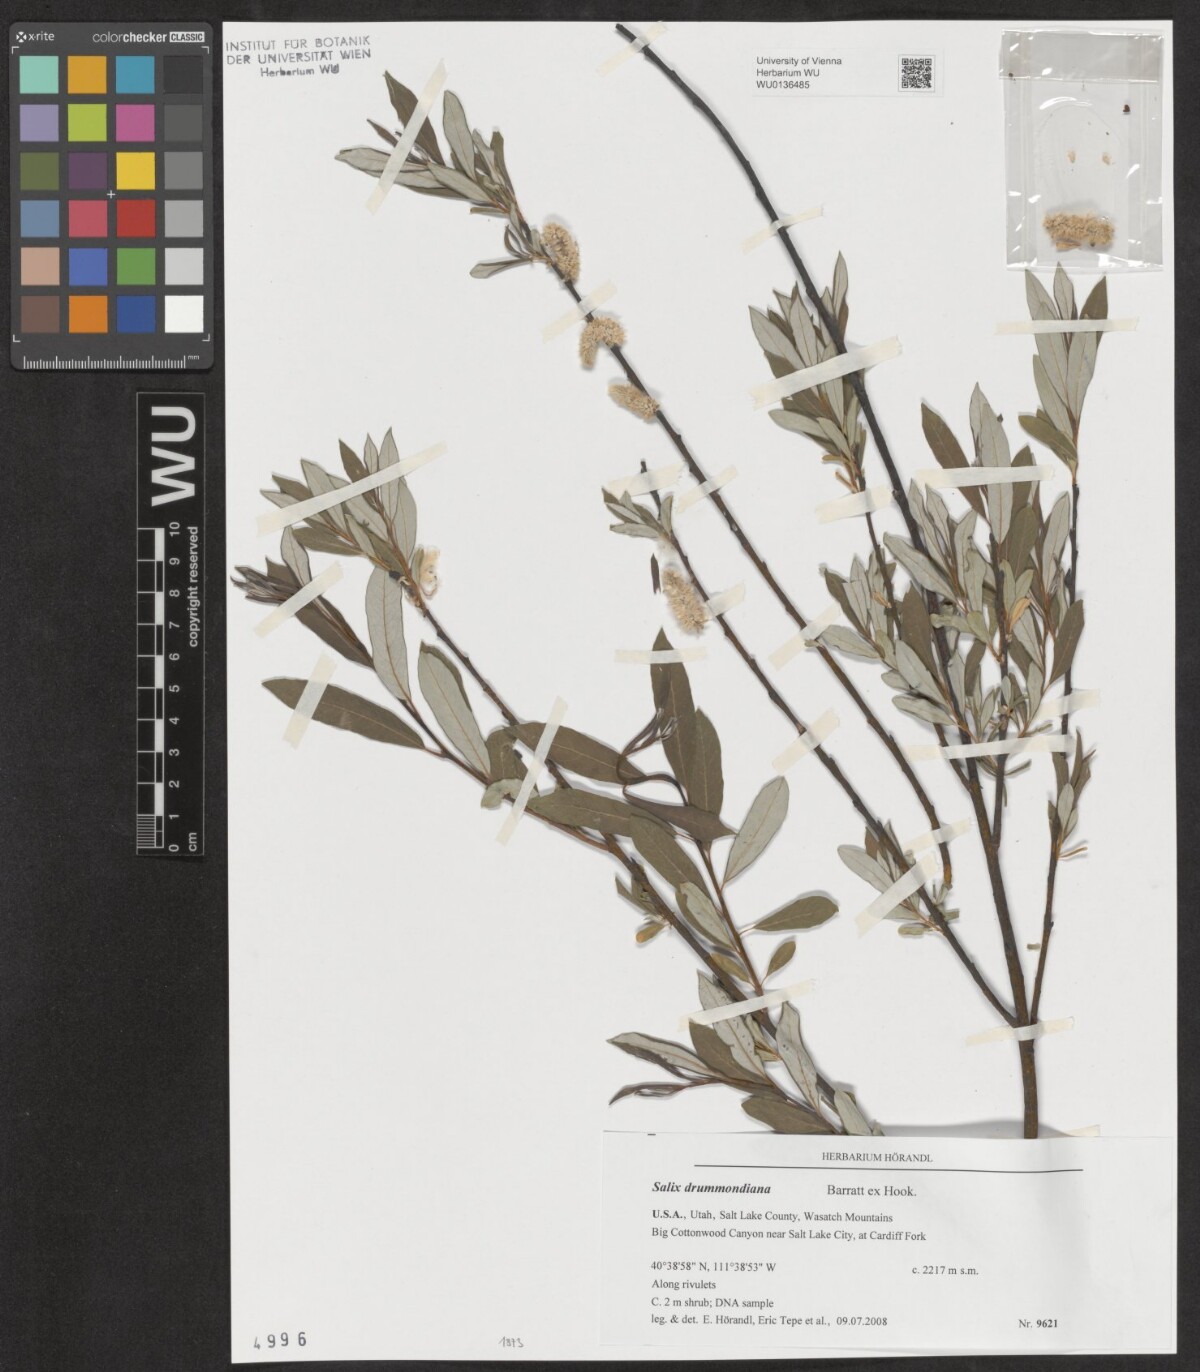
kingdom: Plantae
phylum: Tracheophyta
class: Magnoliopsida
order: Malpighiales
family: Salicaceae
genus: Salix
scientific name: Salix drummondiana
